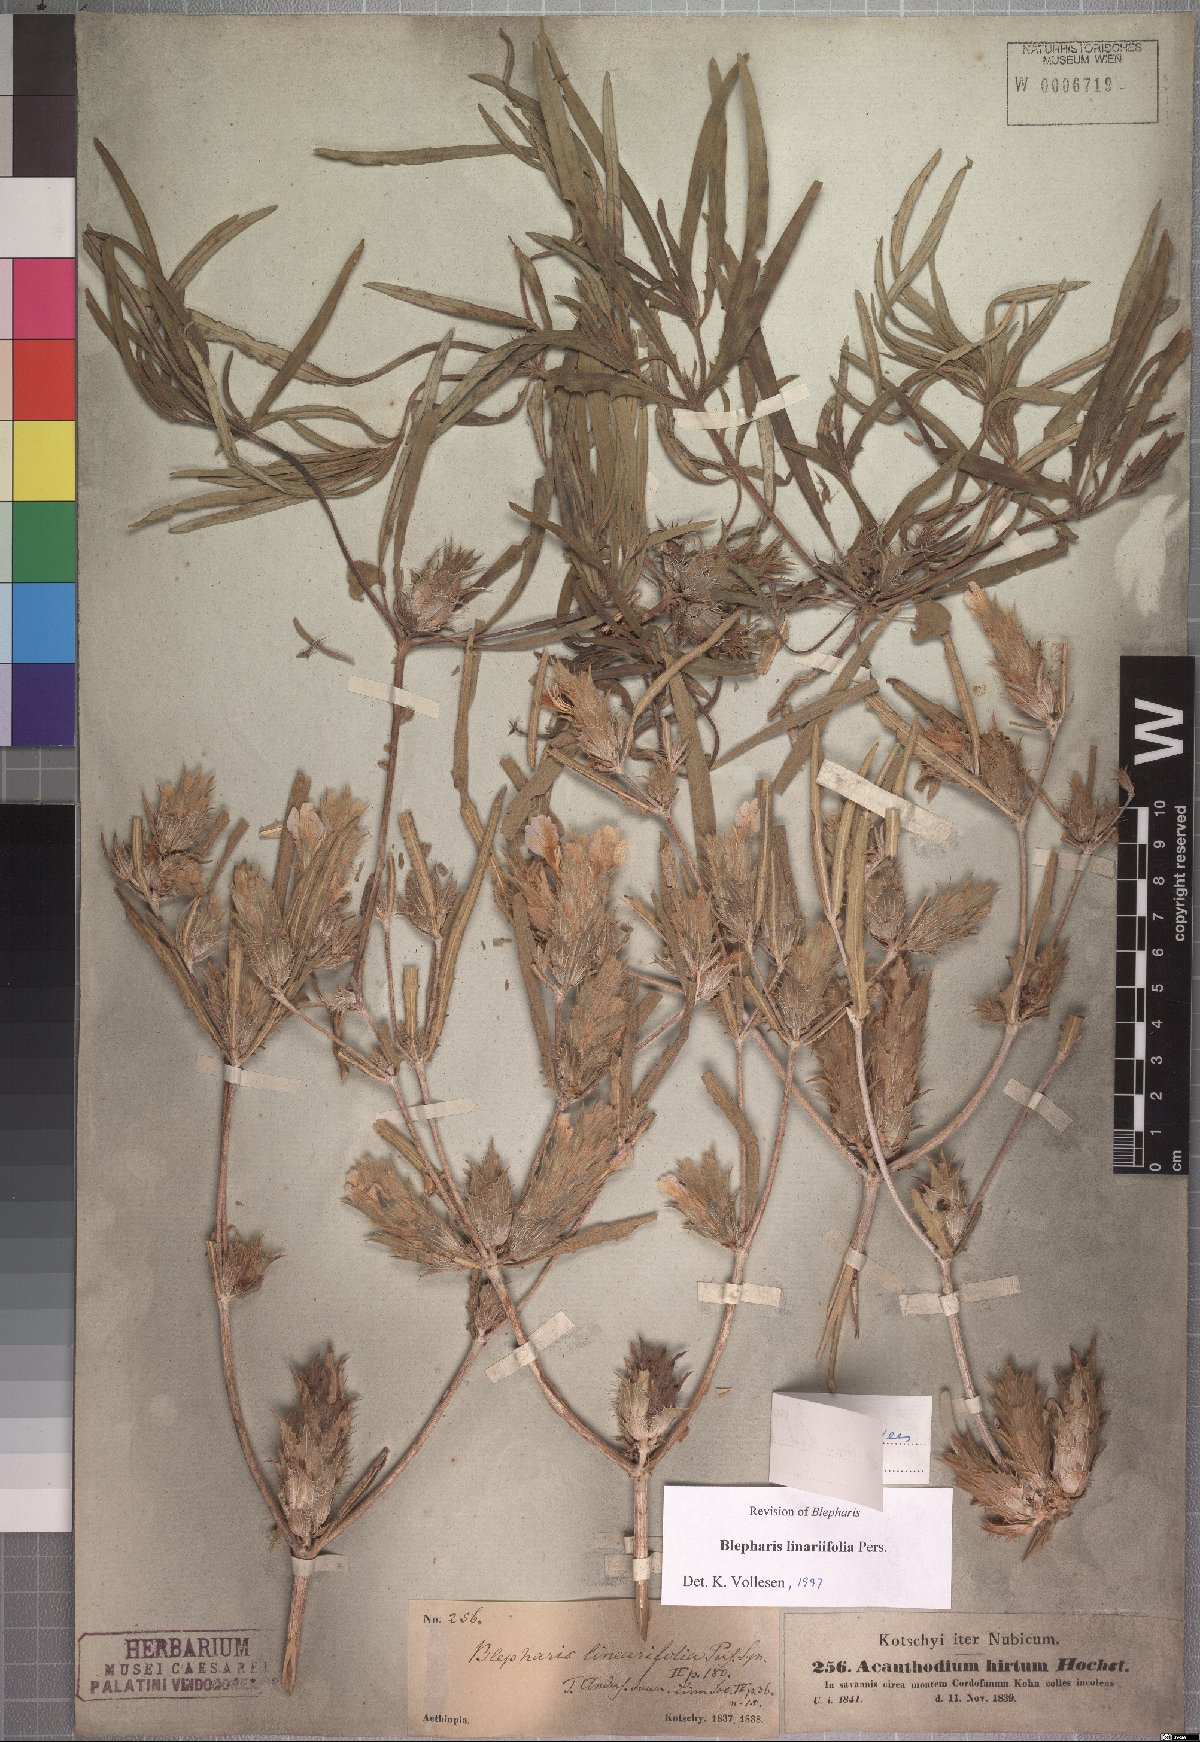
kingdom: Plantae
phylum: Tracheophyta
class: Magnoliopsida
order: Lamiales
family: Acanthaceae
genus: Blepharis
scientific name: Blepharis linariifolia
